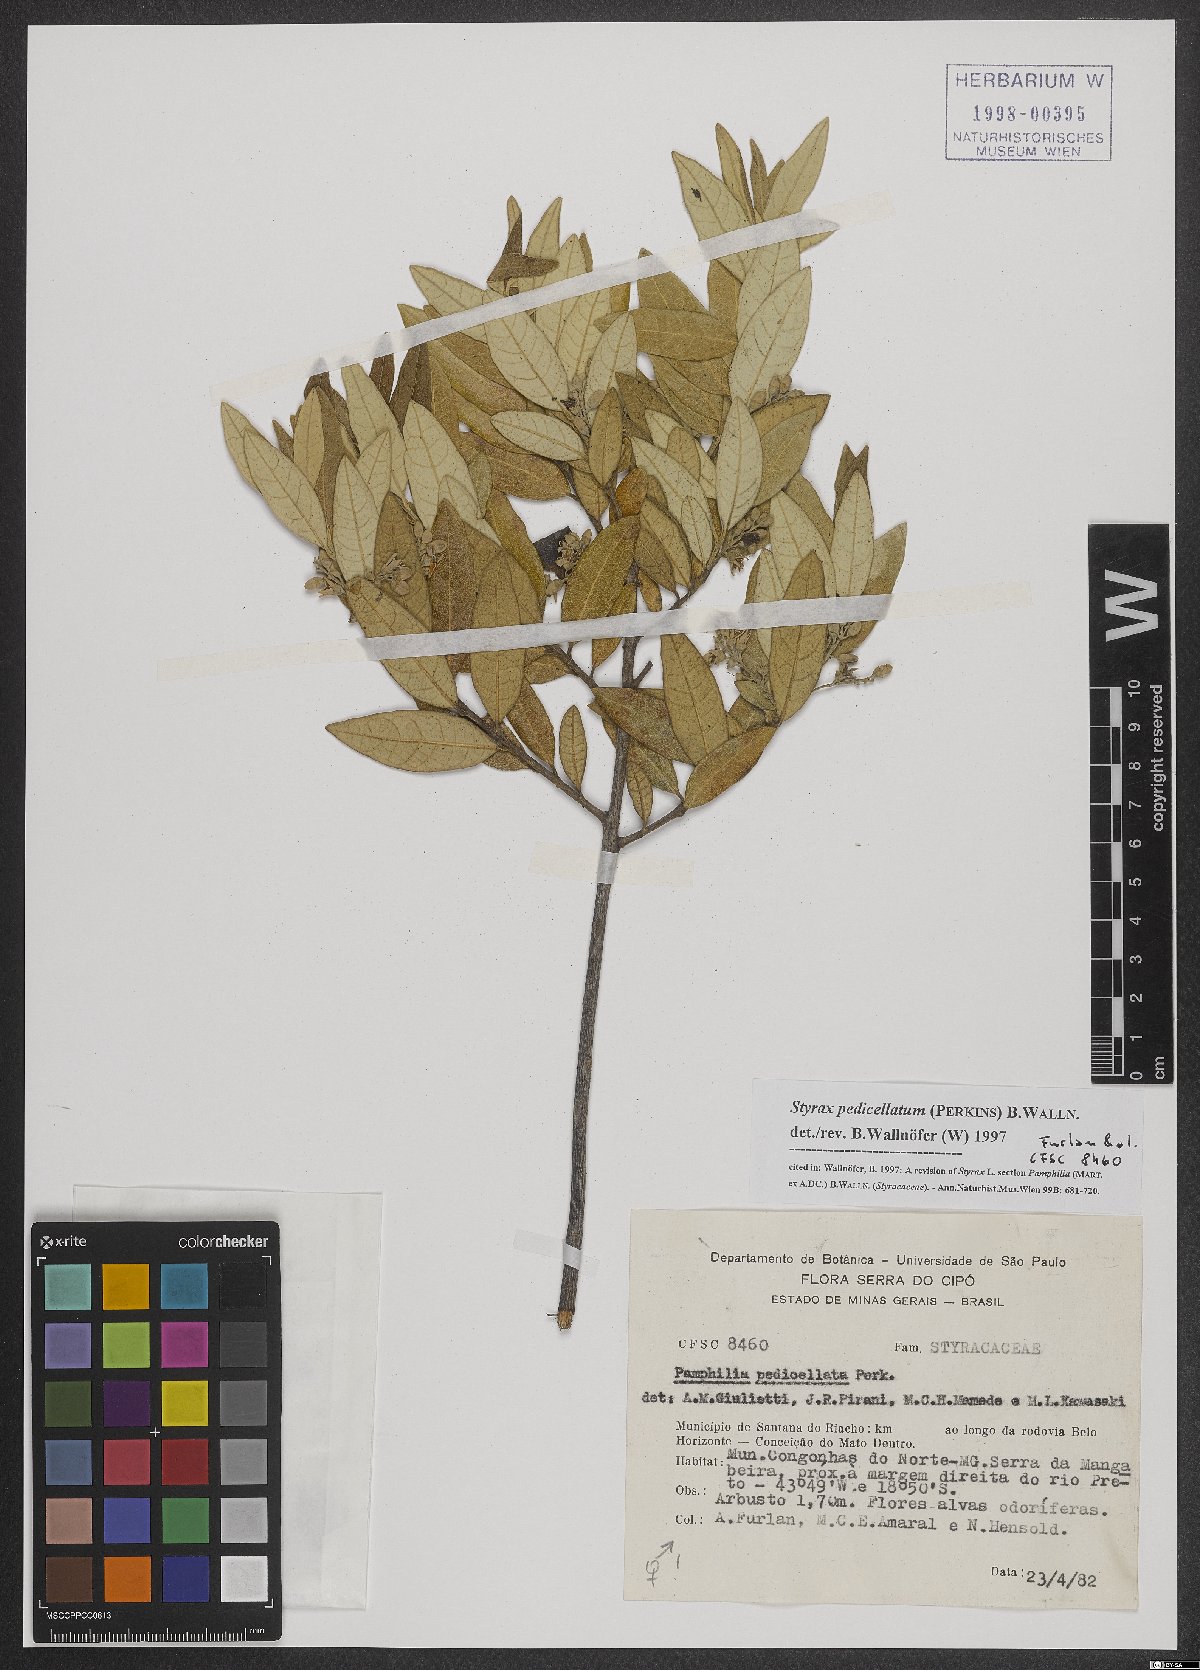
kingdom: Plantae
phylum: Tracheophyta
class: Magnoliopsida
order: Ericales
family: Styracaceae
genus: Styrax
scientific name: Styrax pedicellatus
